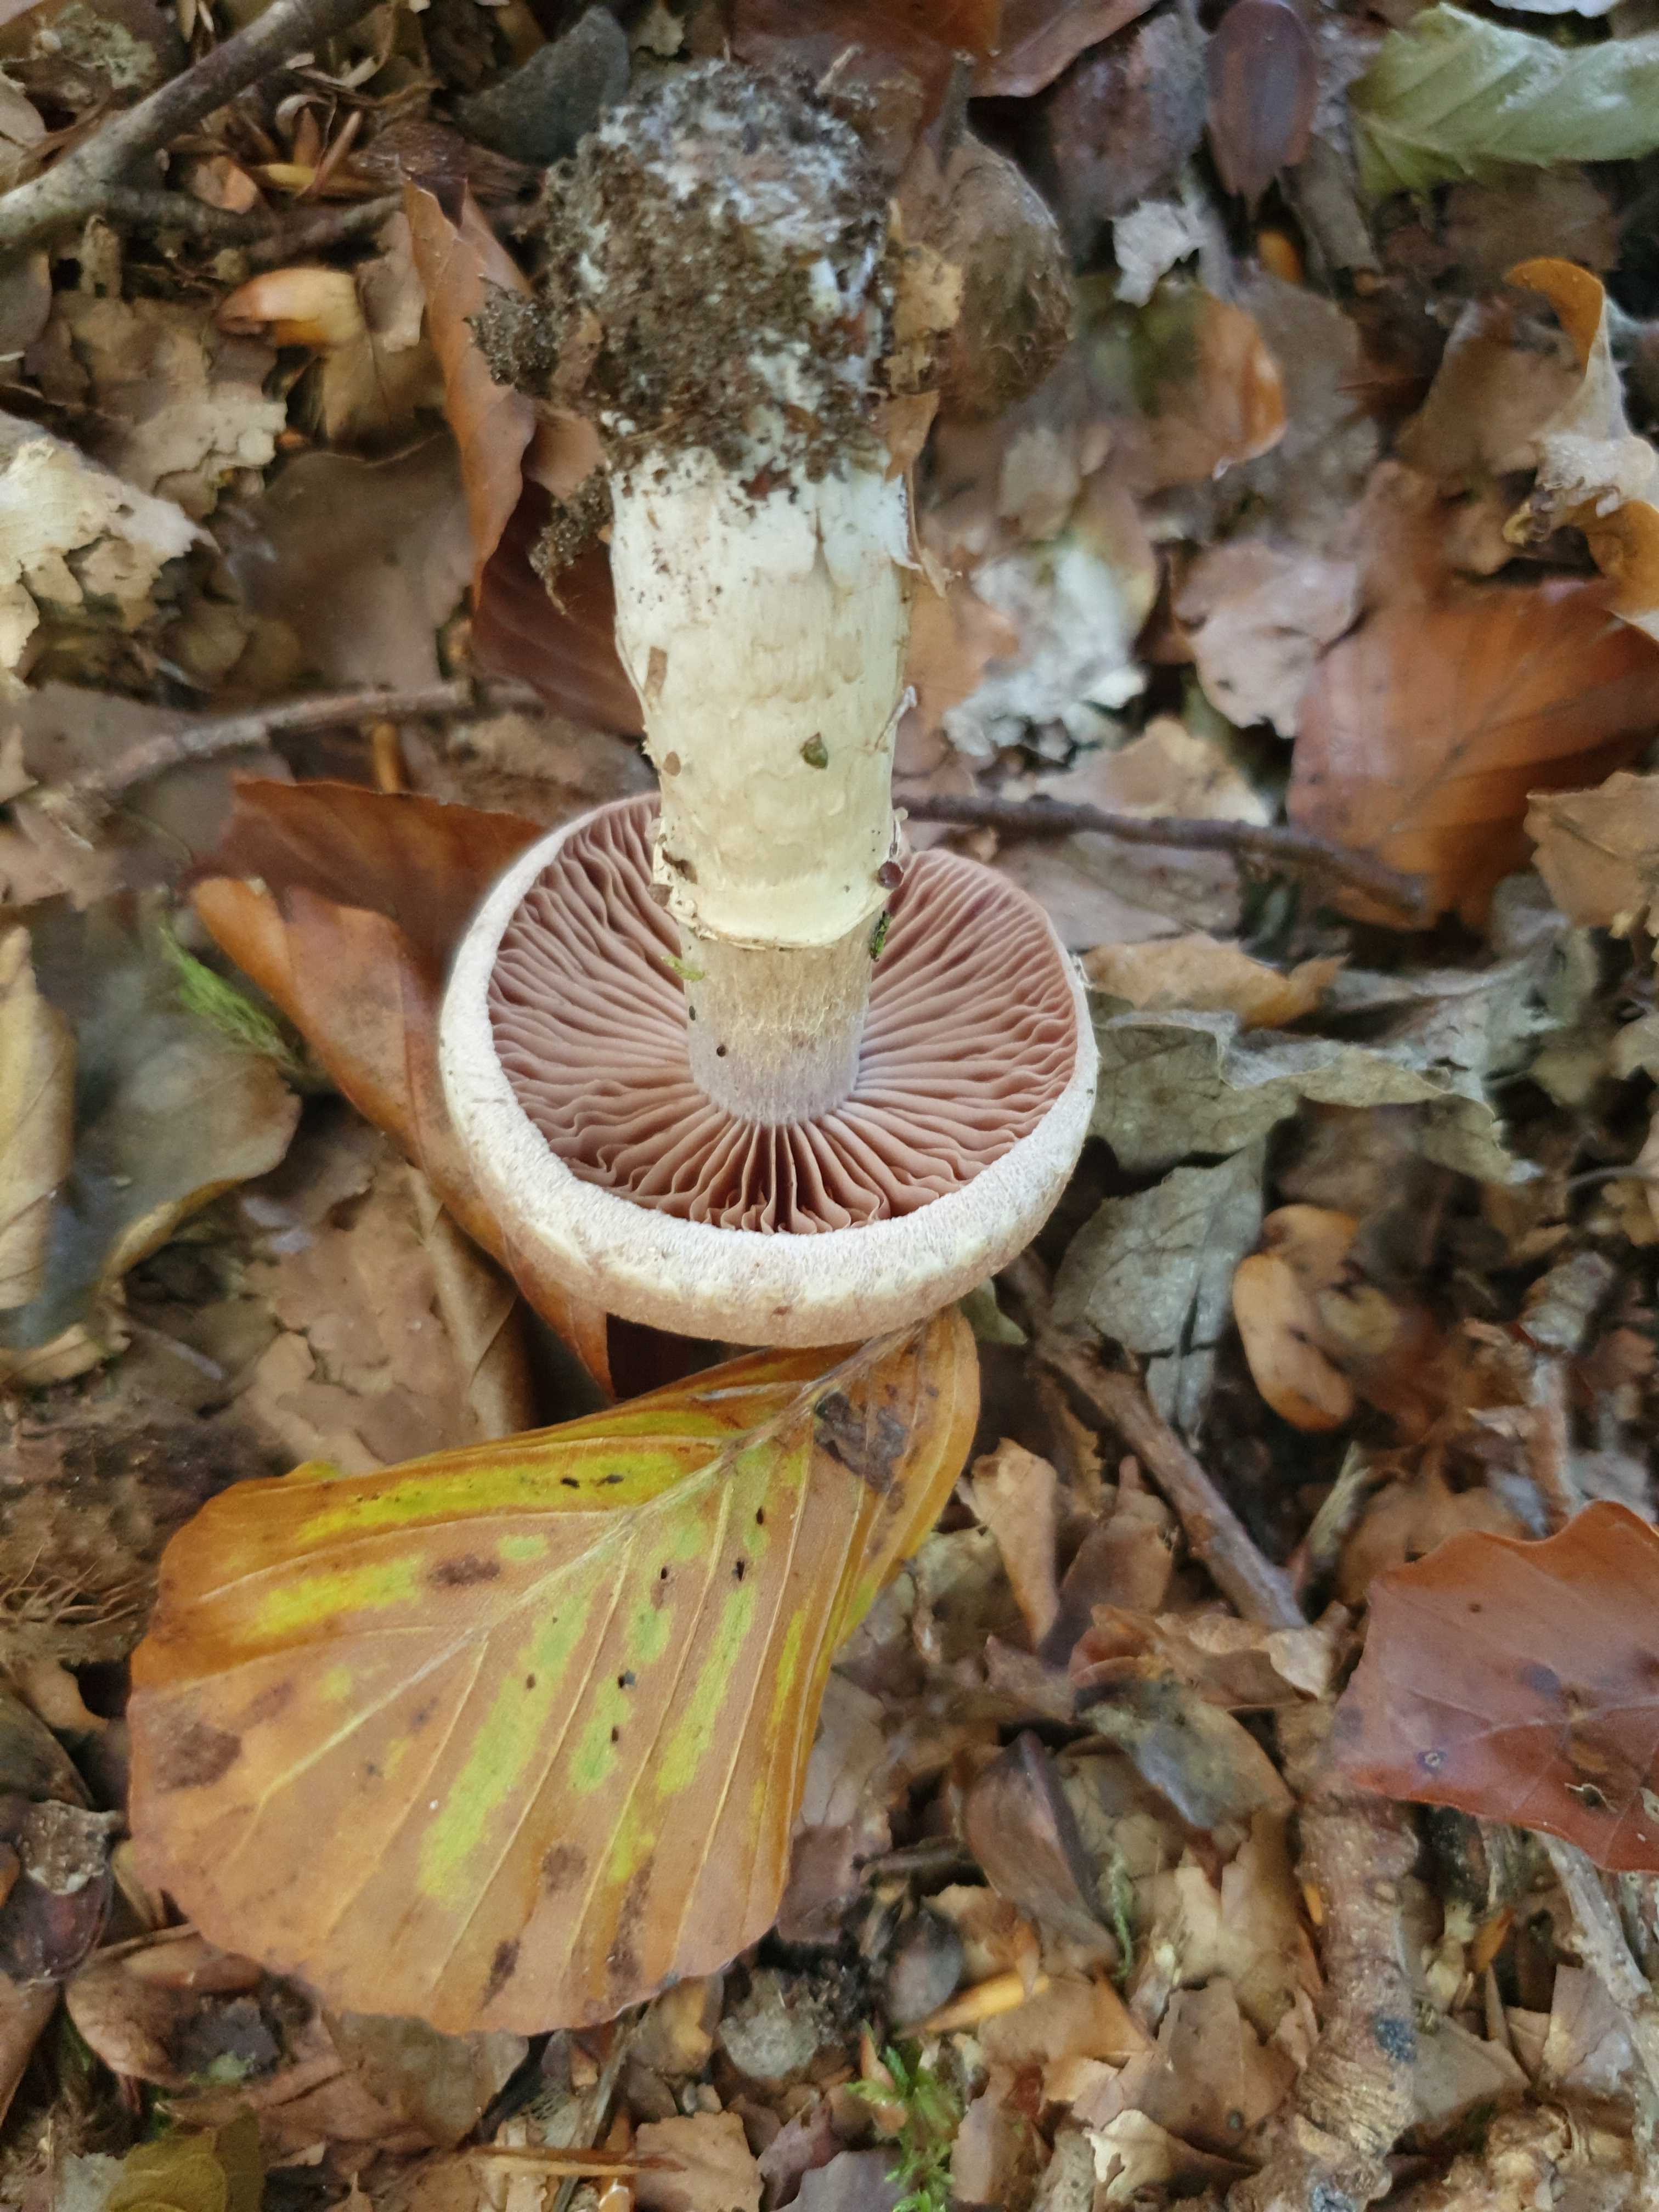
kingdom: Fungi
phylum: Basidiomycota
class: Agaricomycetes
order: Agaricales
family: Cortinariaceae
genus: Cortinarius
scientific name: Cortinarius torvus
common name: champignonagtig slørhat
